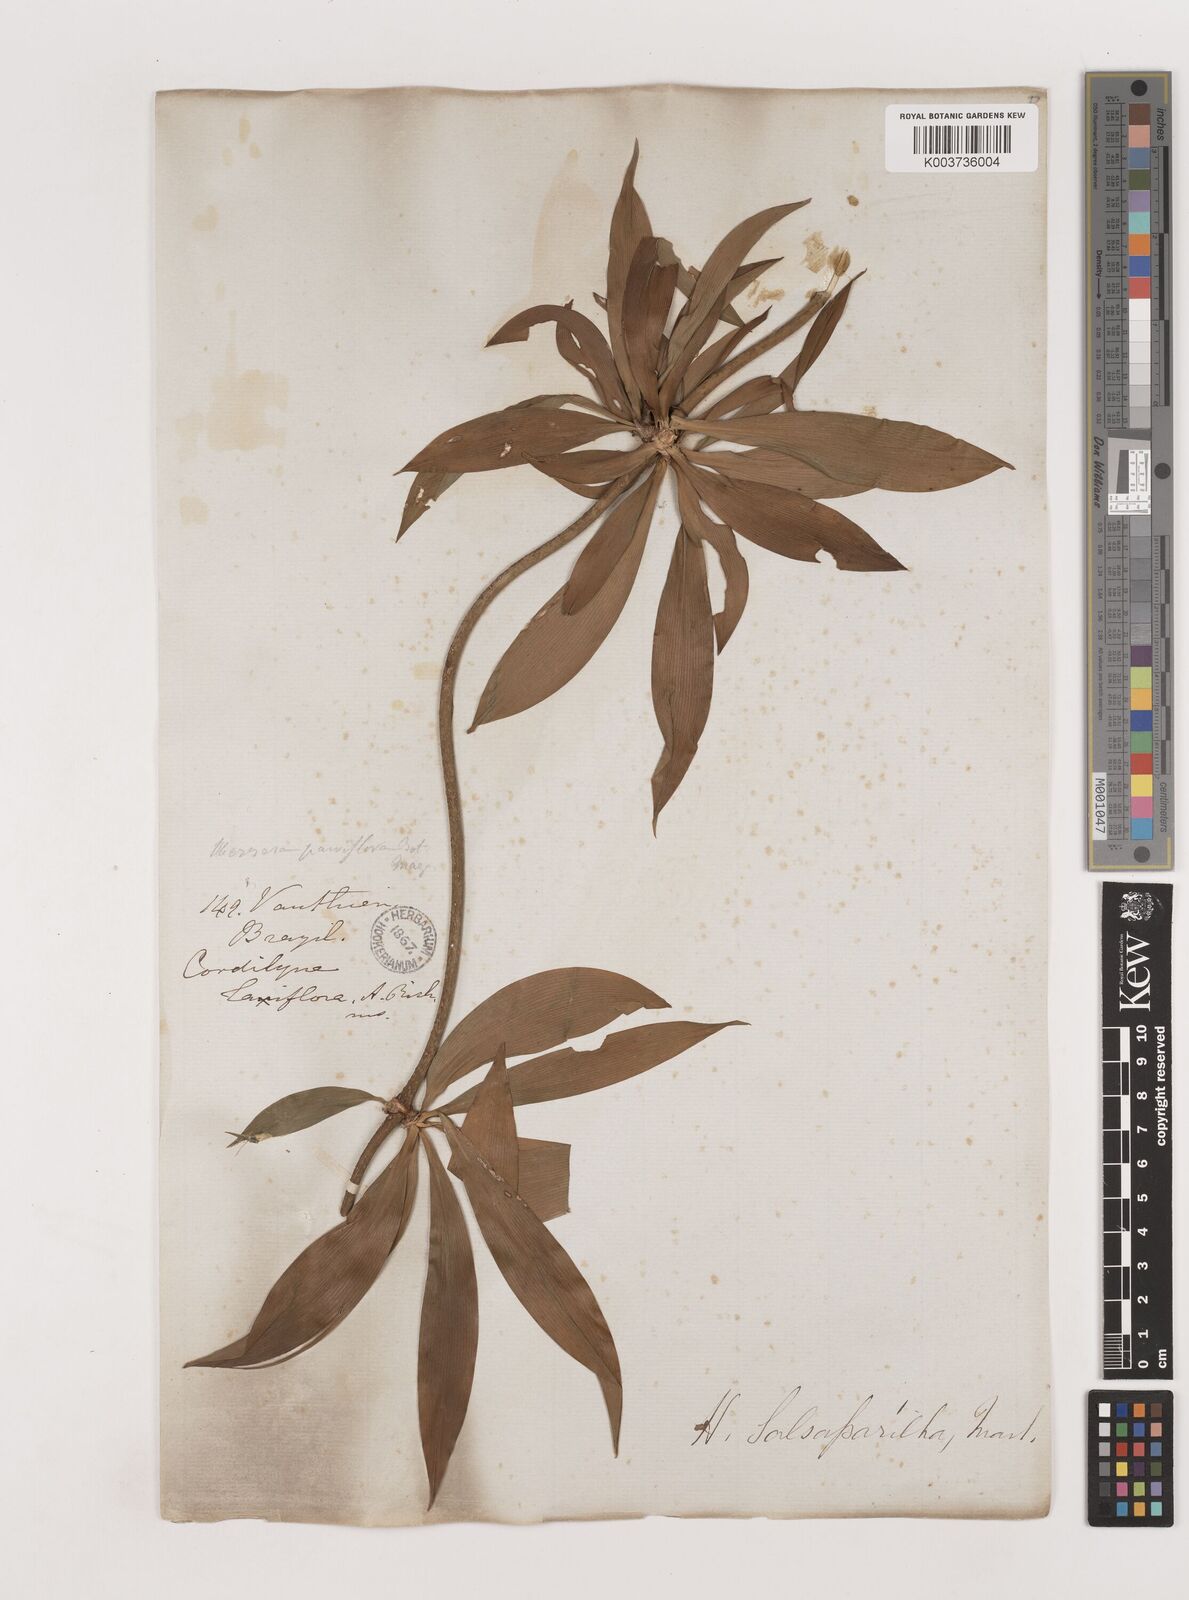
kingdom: Plantae
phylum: Tracheophyta
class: Liliopsida
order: Asparagales
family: Asparagaceae
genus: Herreria
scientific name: Herreria salsaparilha
